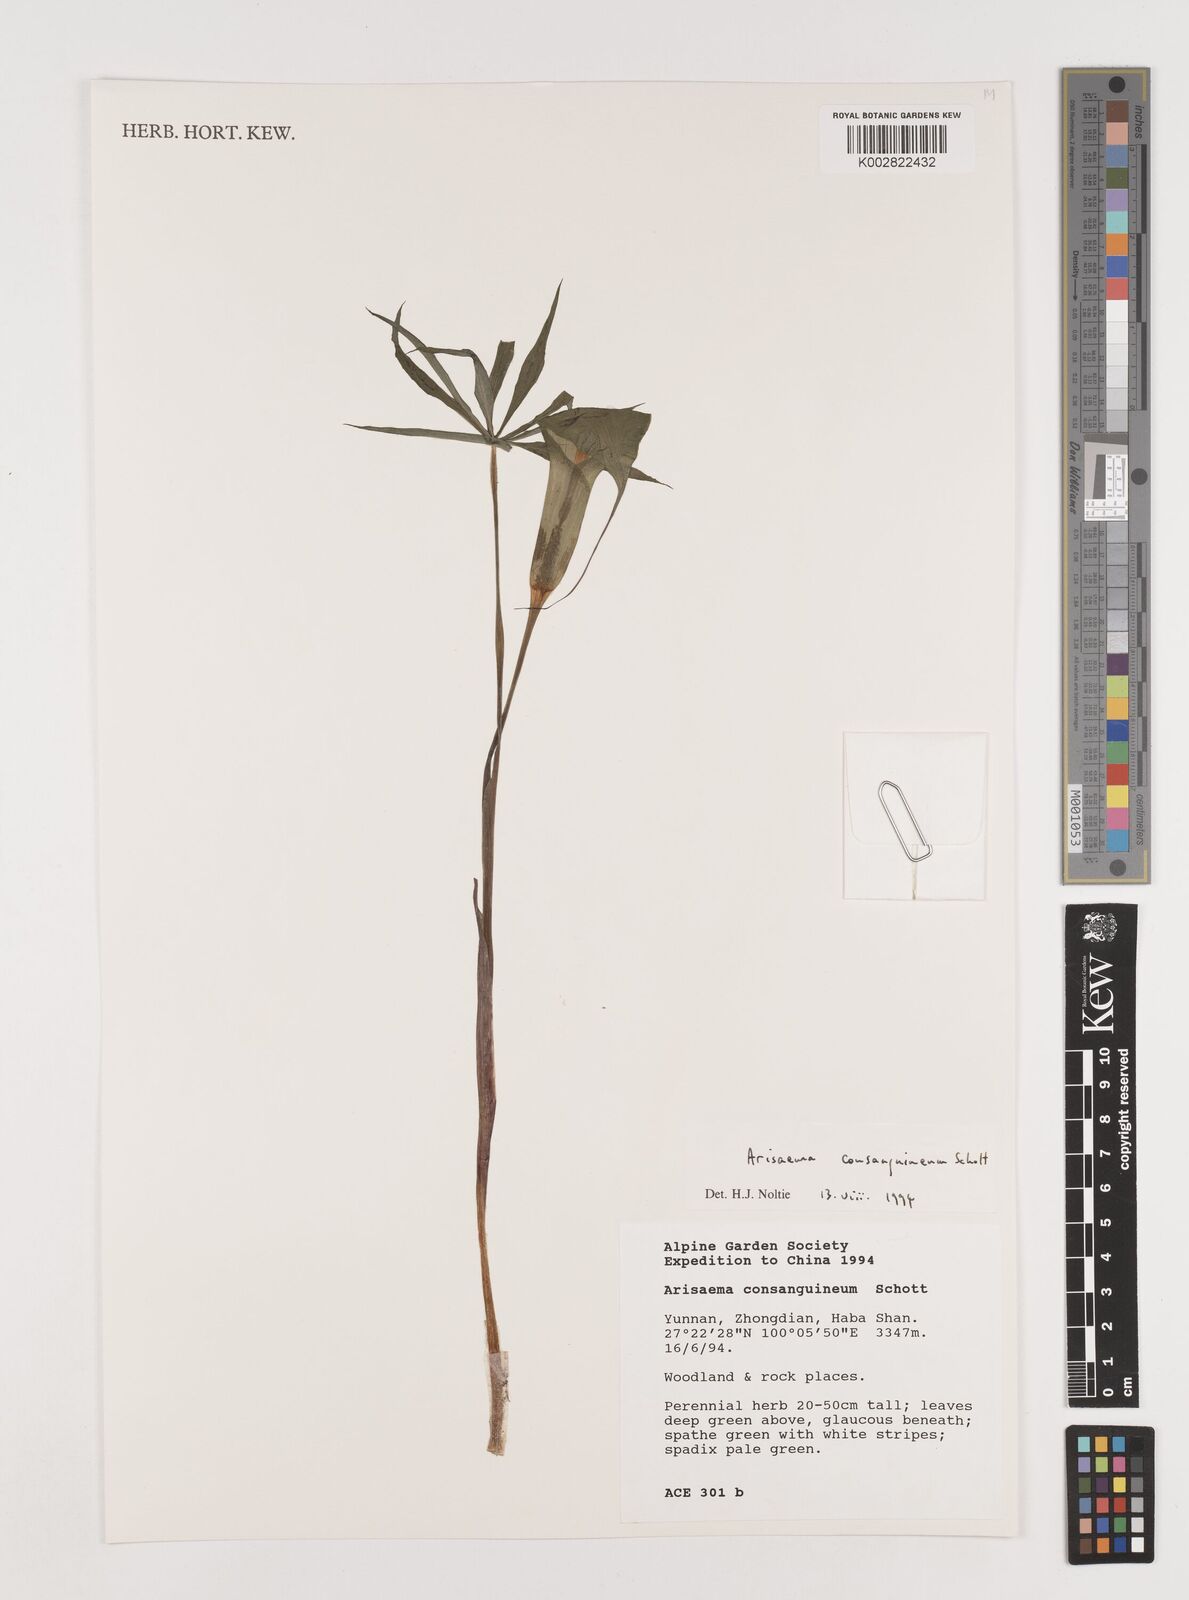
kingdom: Plantae
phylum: Tracheophyta
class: Liliopsida
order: Alismatales
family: Araceae
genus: Arisaema
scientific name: Arisaema erubescens
